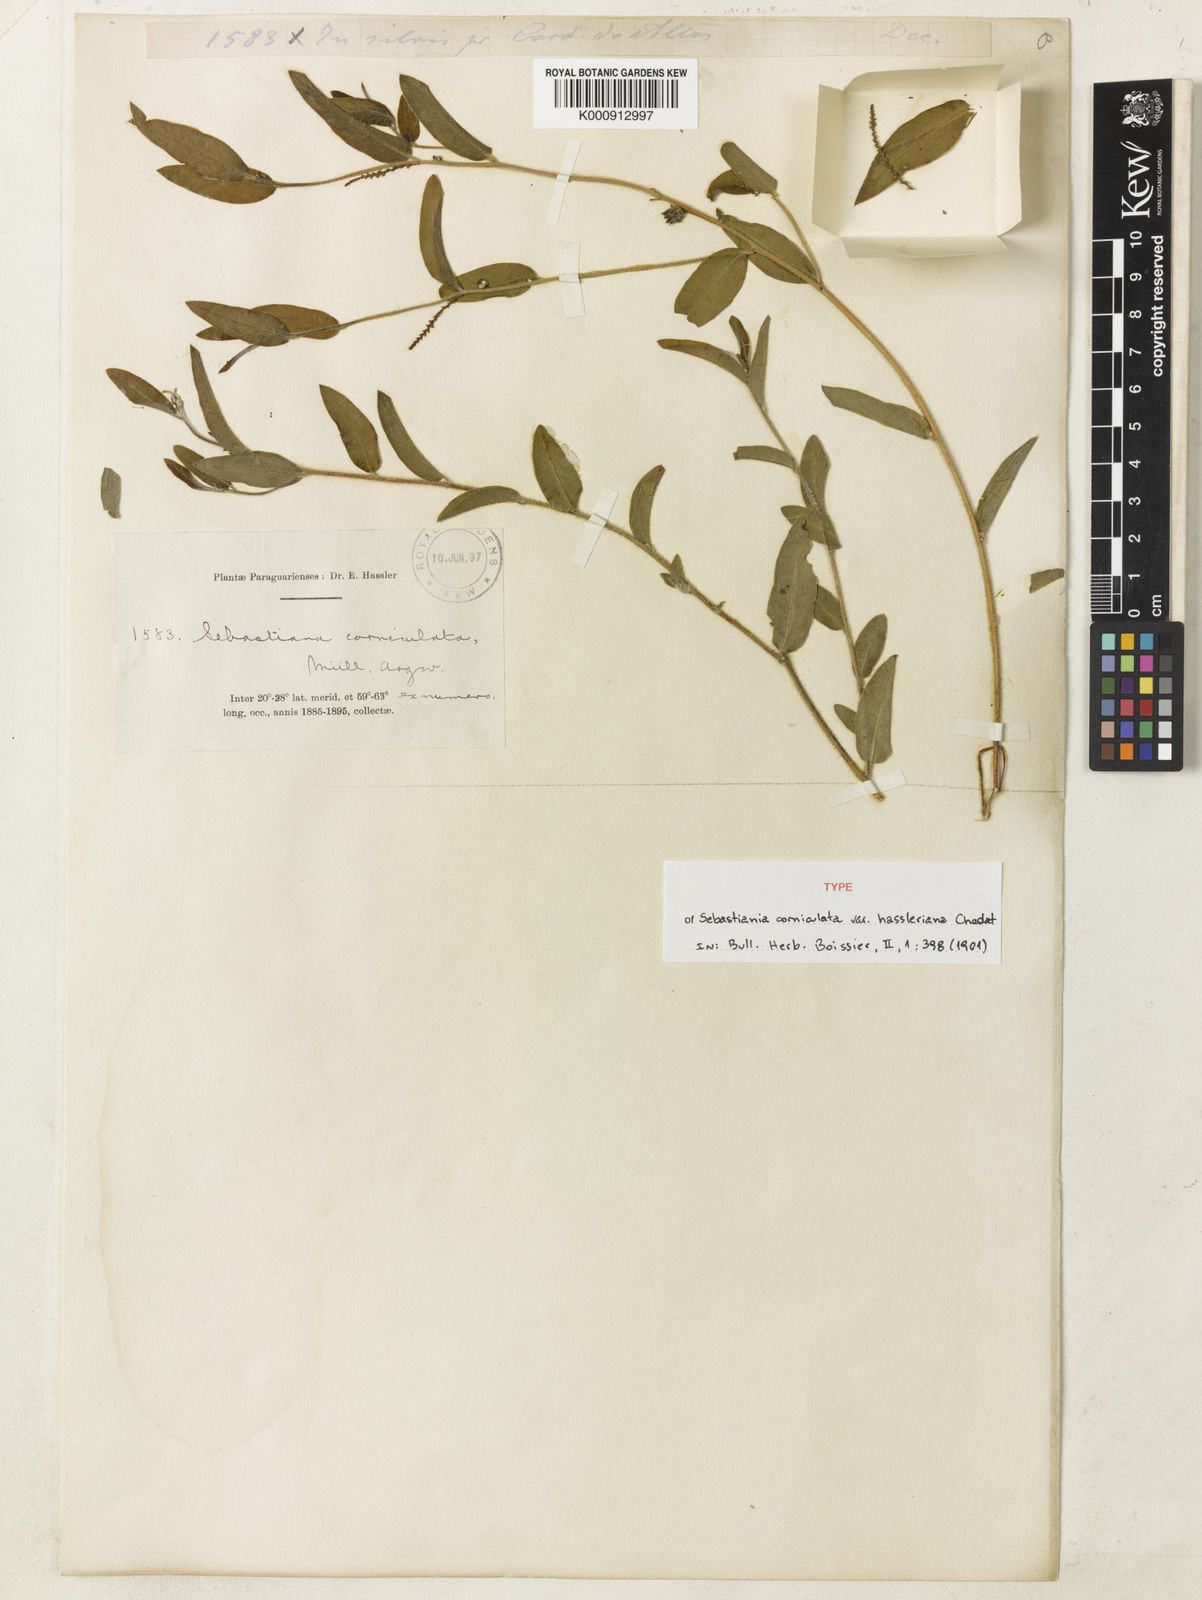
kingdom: Plantae
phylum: Tracheophyta
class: Magnoliopsida
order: Malpighiales
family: Euphorbiaceae
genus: Microstachys
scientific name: Microstachys corniculata
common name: Hato tejas
